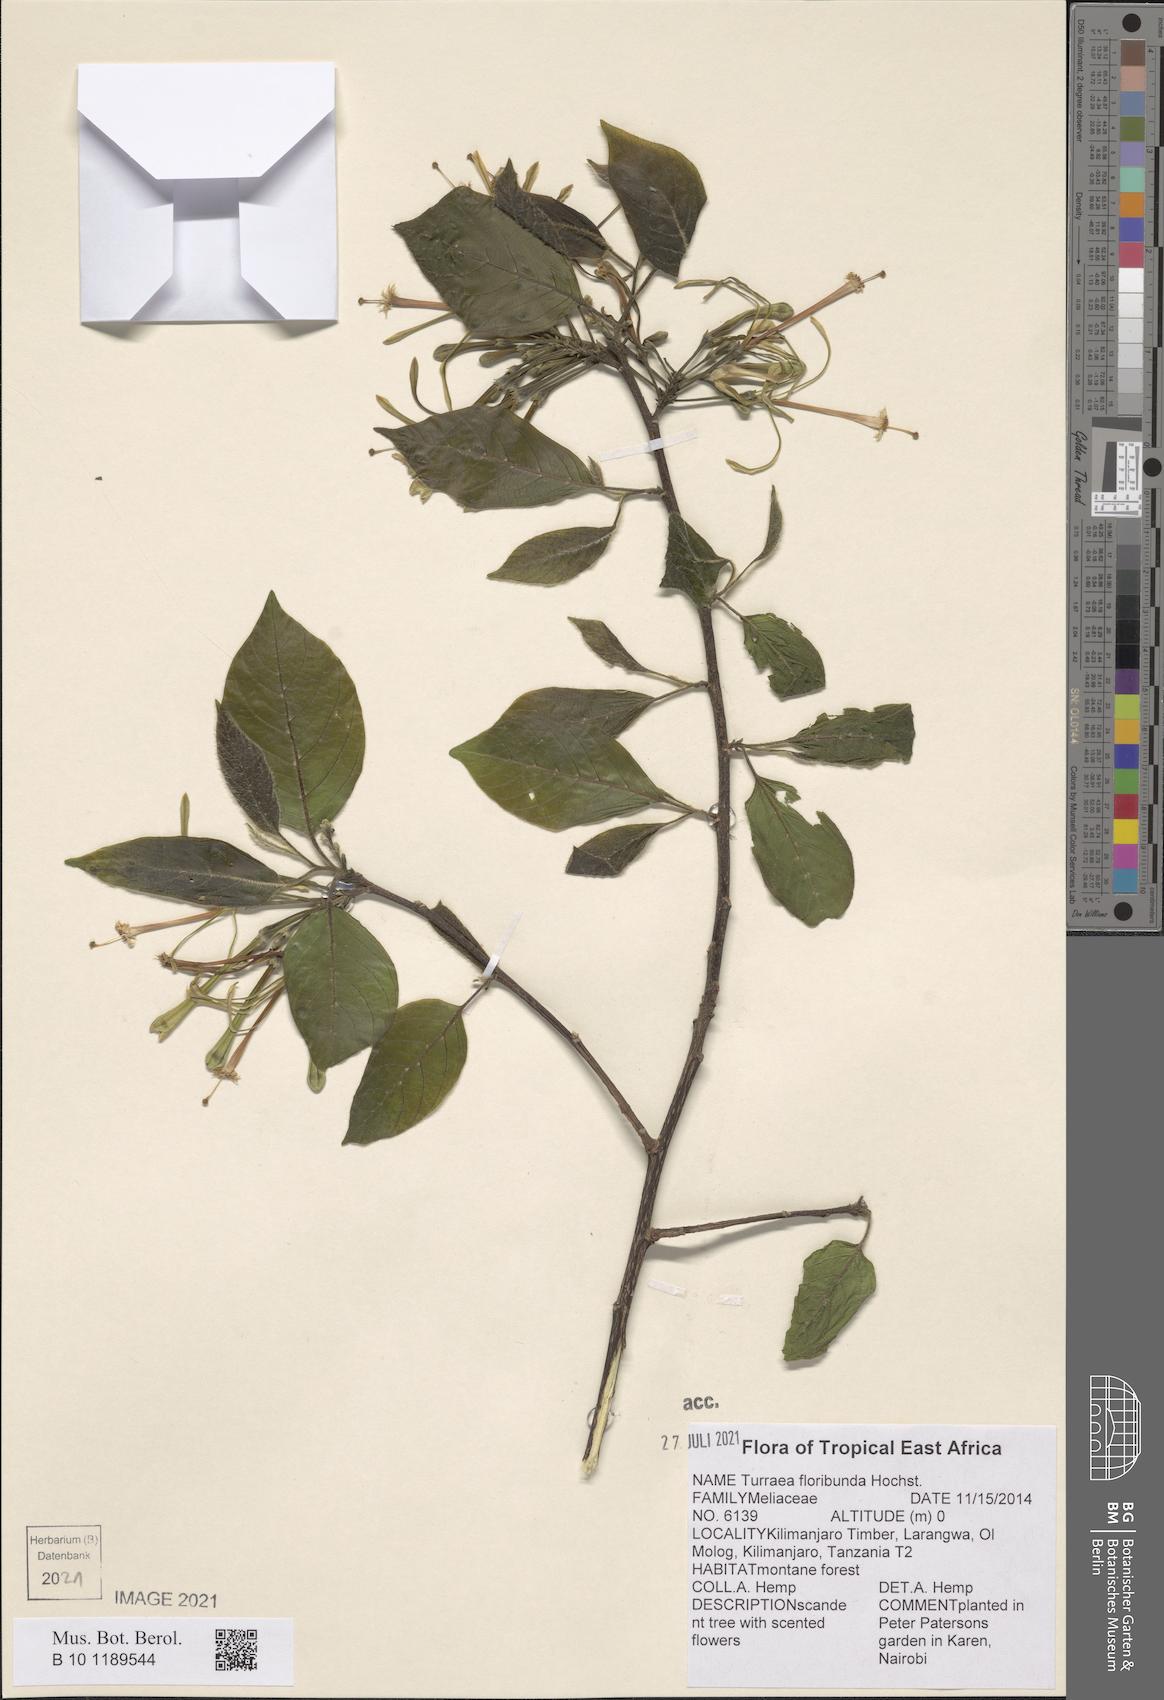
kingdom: Plantae
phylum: Tracheophyta
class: Magnoliopsida
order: Sapindales
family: Meliaceae
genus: Turraea
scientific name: Turraea floribunda
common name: Honeysuckle tree
